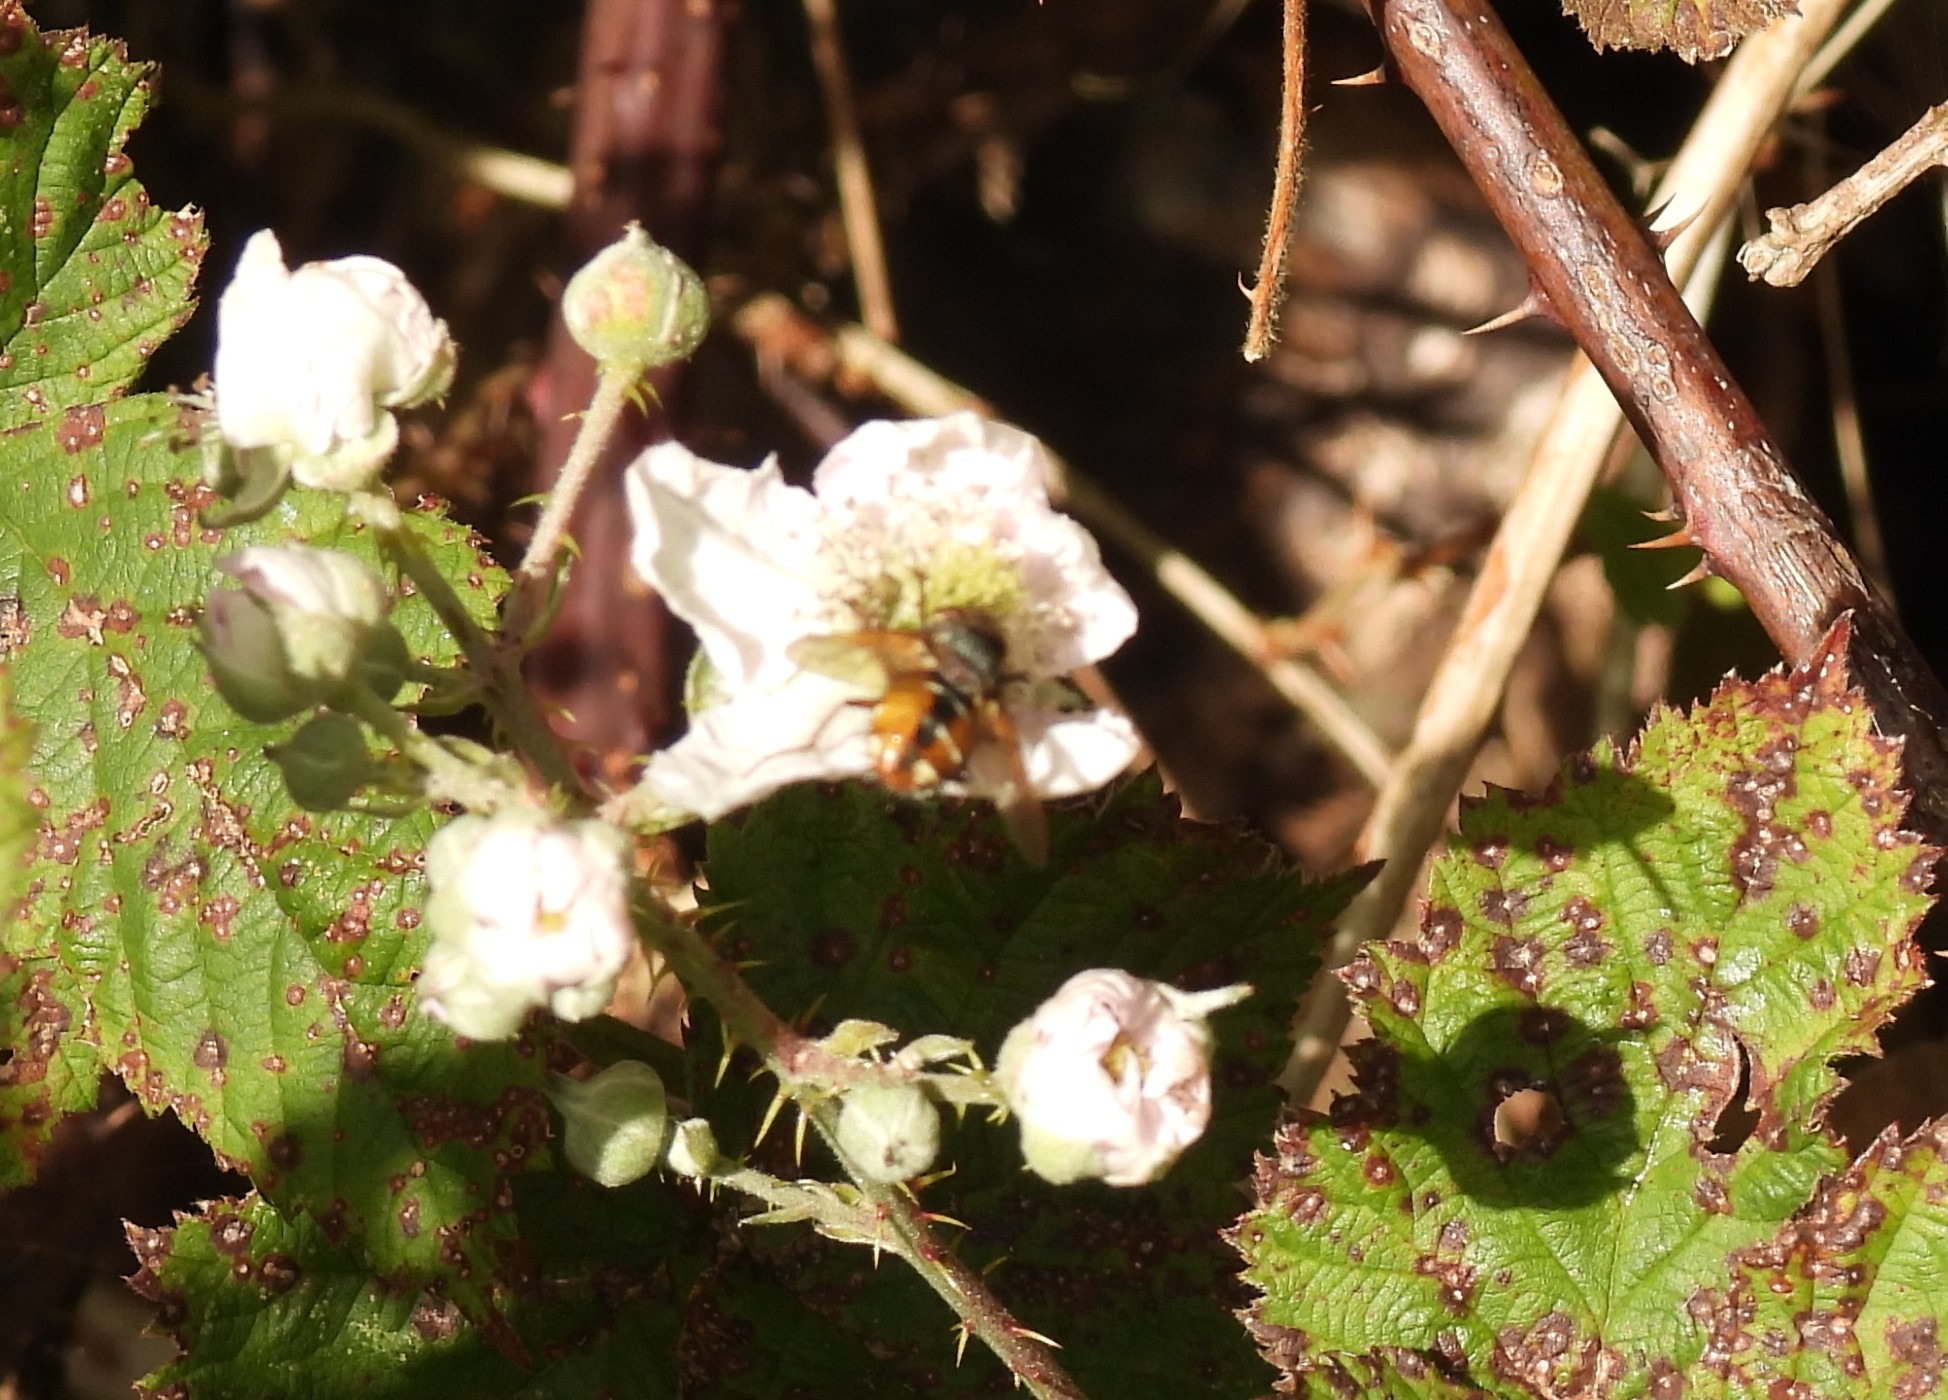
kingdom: Animalia
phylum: Arthropoda
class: Insecta
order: Diptera
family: Tachinidae
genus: Tachina
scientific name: Tachina fera
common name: Mellemfluen oskar
